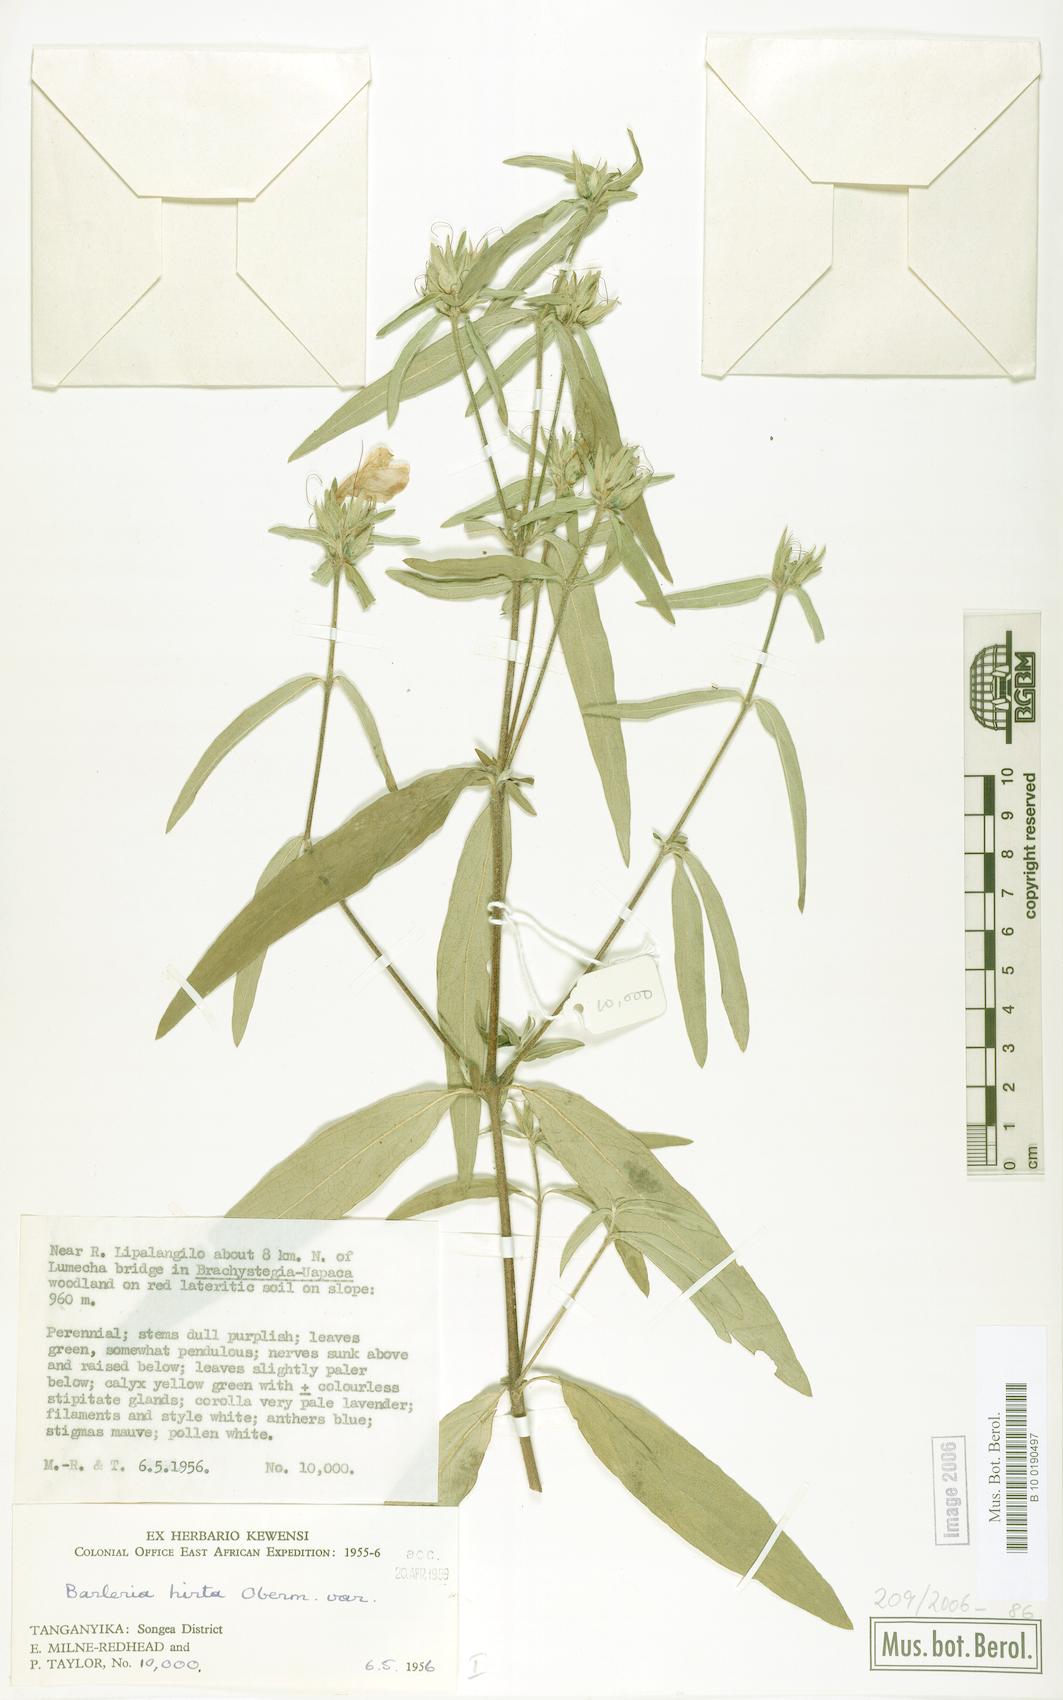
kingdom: Plantae
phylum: Tracheophyta
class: Magnoliopsida
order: Lamiales
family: Acanthaceae
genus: Barleria
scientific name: Barleria hirta
